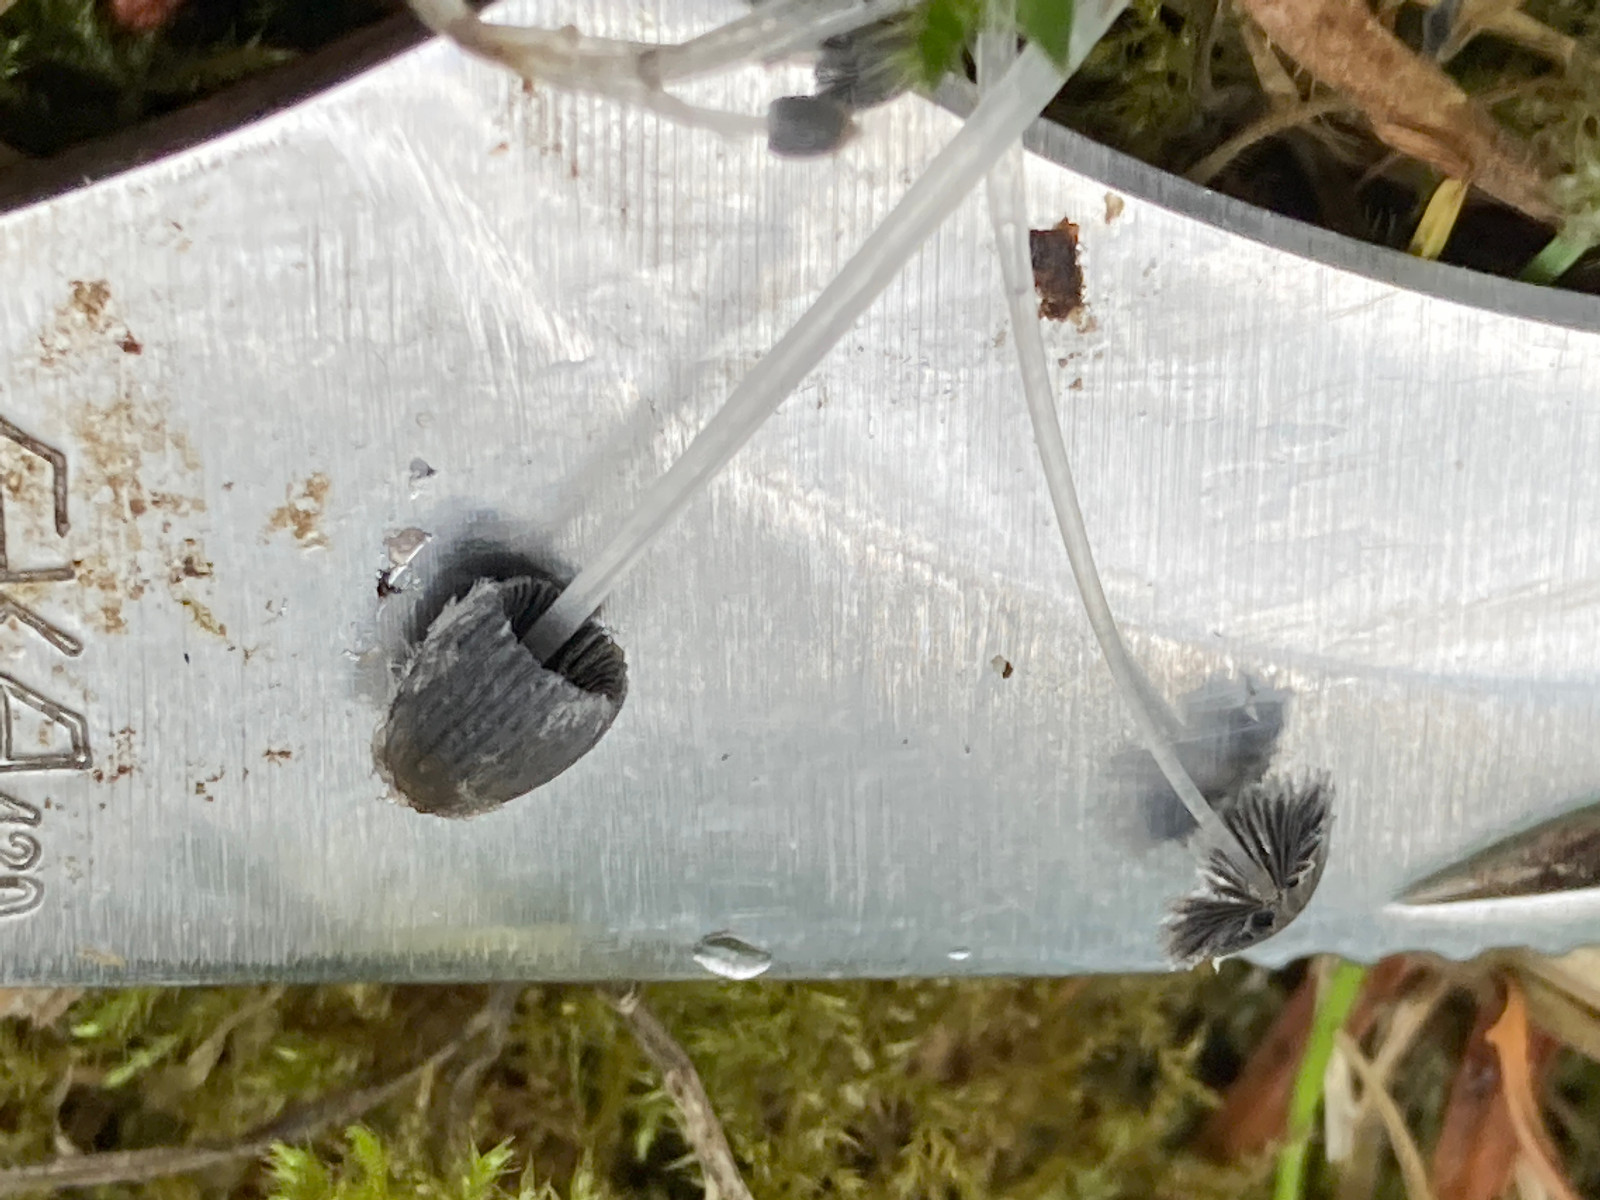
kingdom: Fungi
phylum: Basidiomycota
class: Agaricomycetes
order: Agaricales
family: Psathyrellaceae
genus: Coprinopsis
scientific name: Coprinopsis
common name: blækhat
